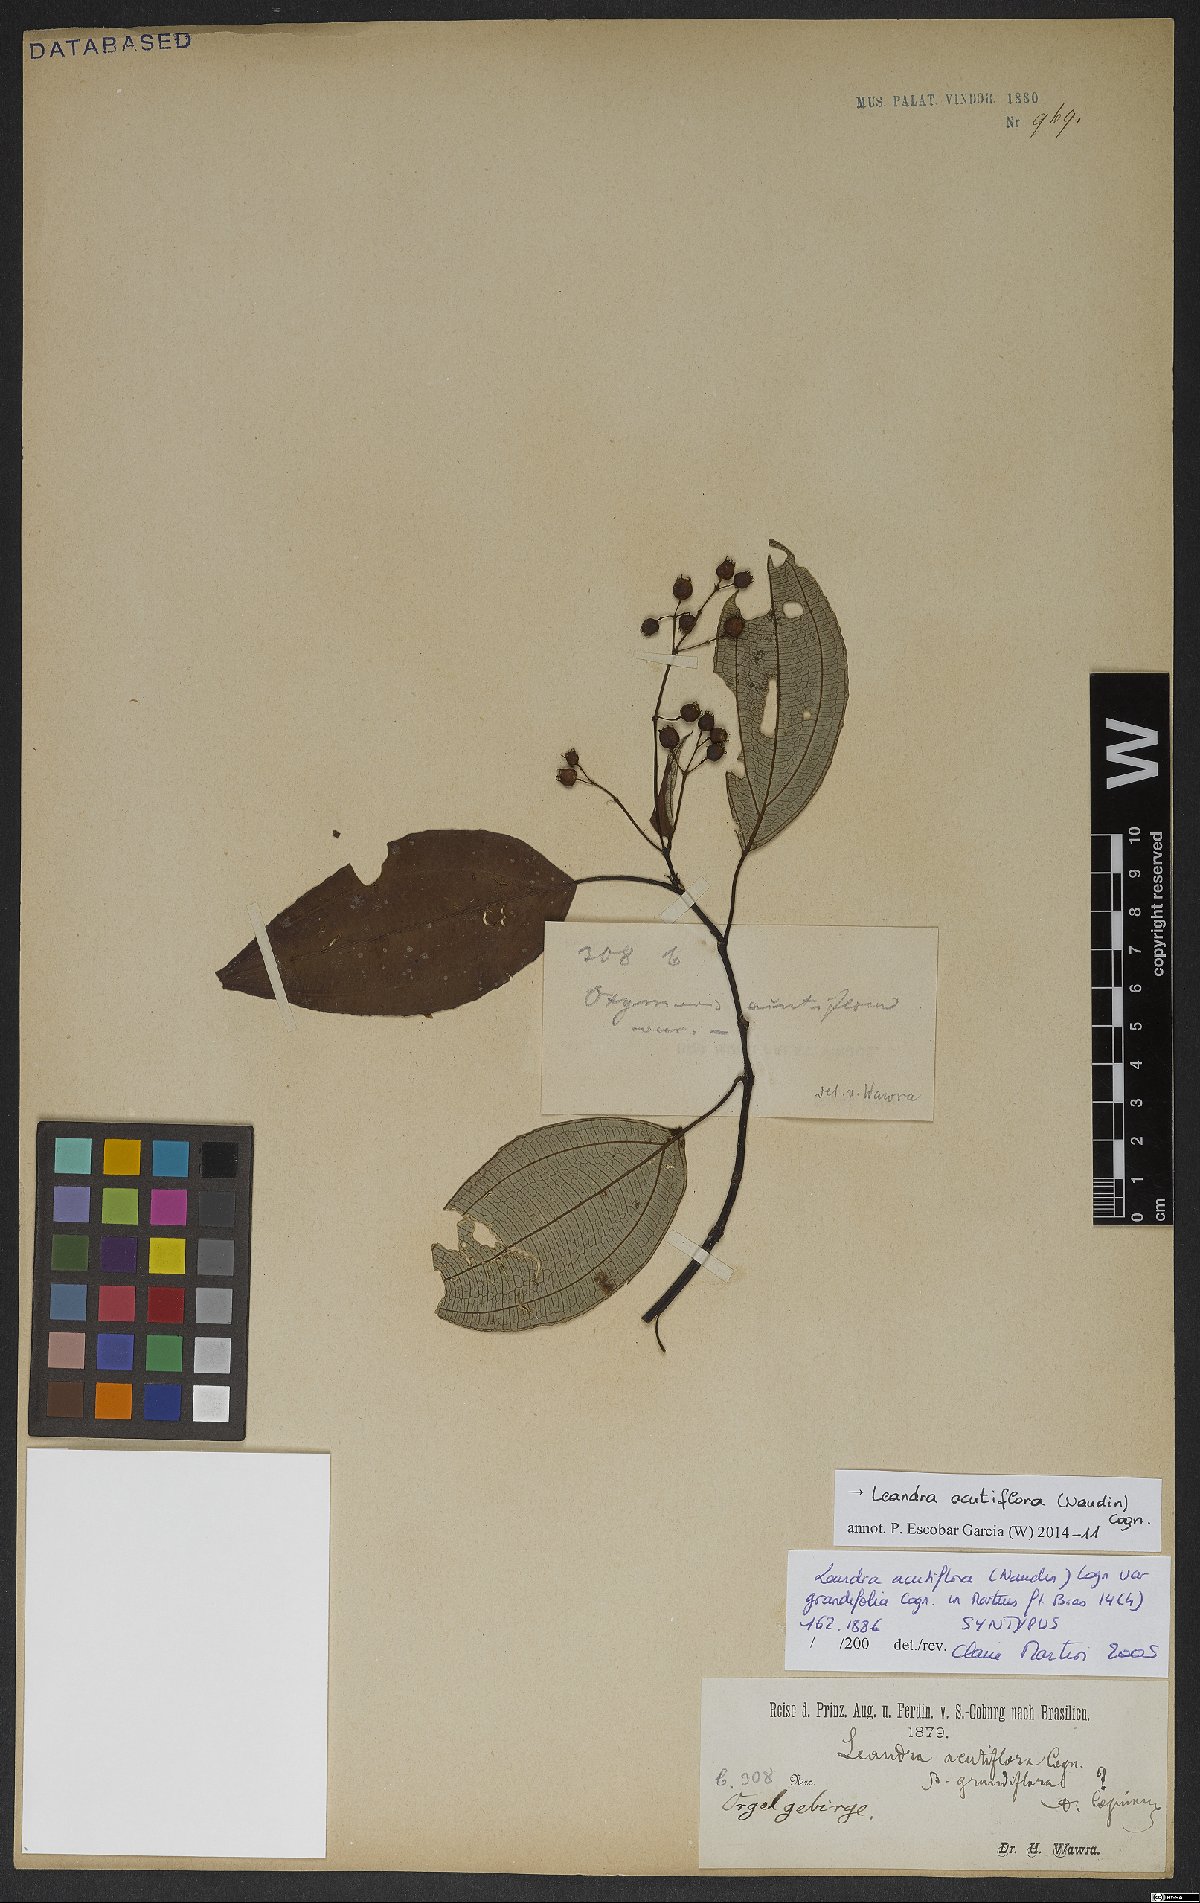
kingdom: Plantae
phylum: Tracheophyta
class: Magnoliopsida
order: Myrtales
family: Melastomataceae
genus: Miconia
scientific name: Miconia acutiflora
